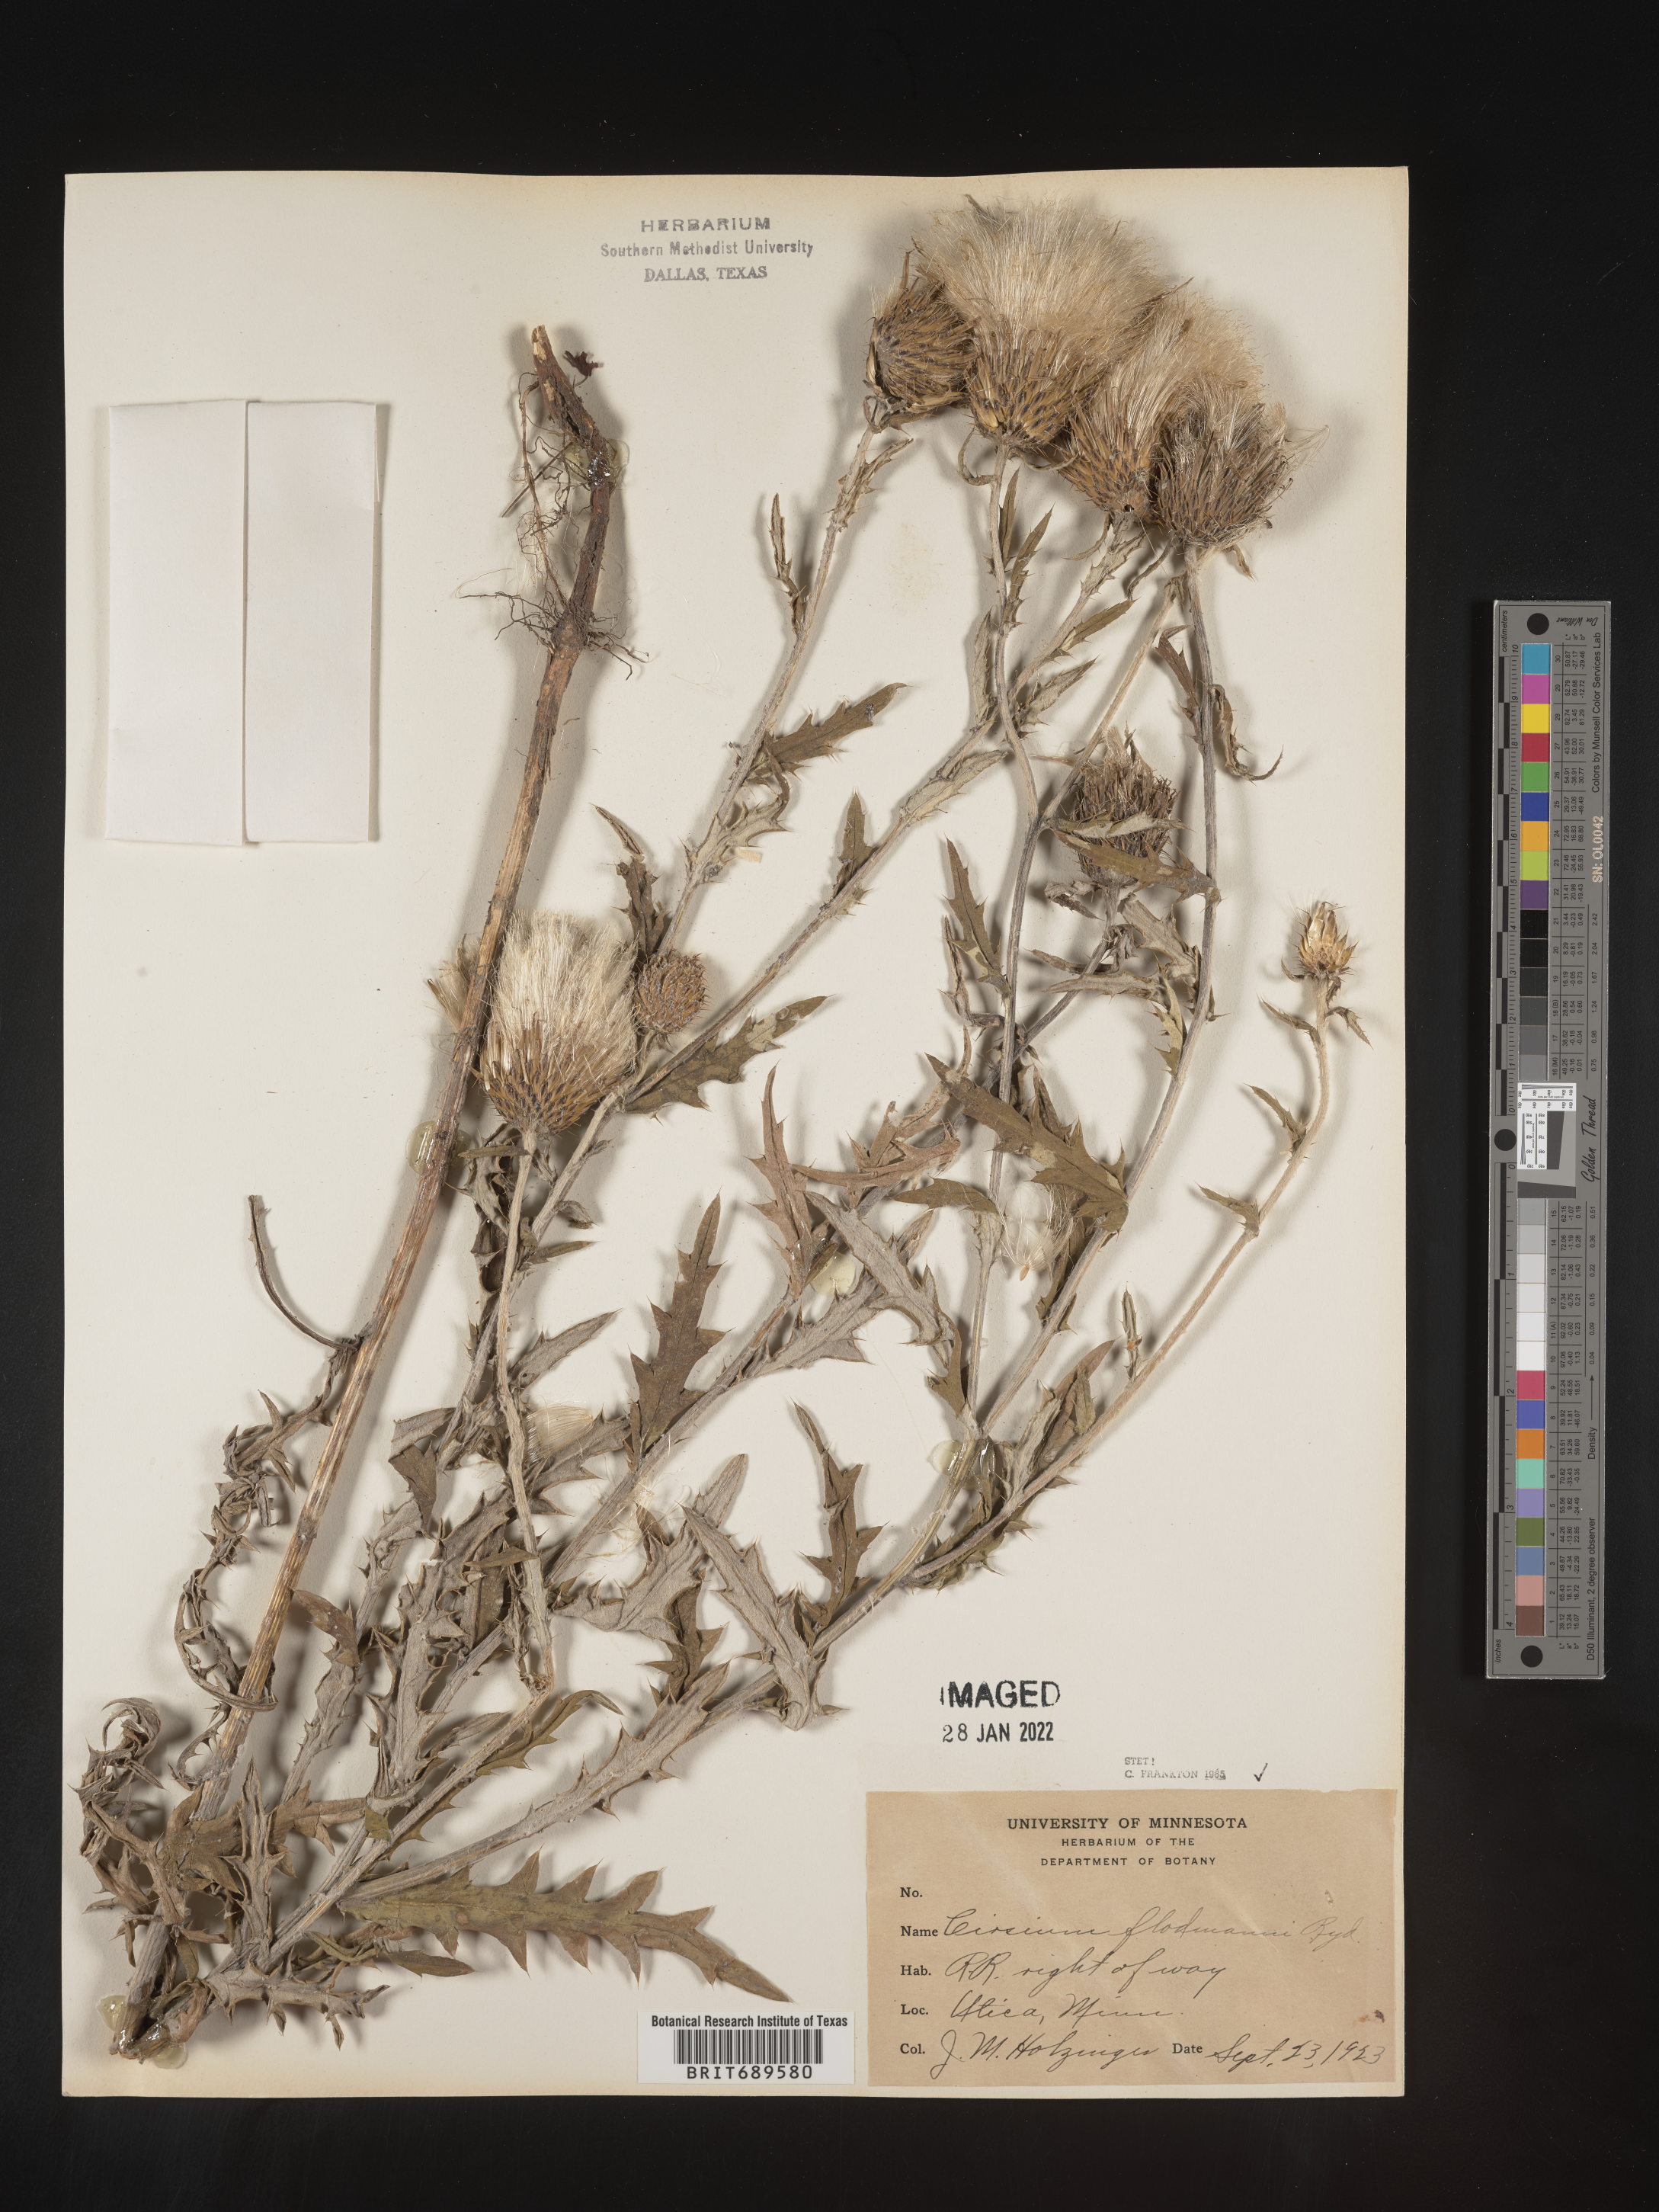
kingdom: Plantae
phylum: Tracheophyta
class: Magnoliopsida
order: Asterales
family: Asteraceae
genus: Cirsium
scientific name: Cirsium flodmanii
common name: Flodman's thistle
